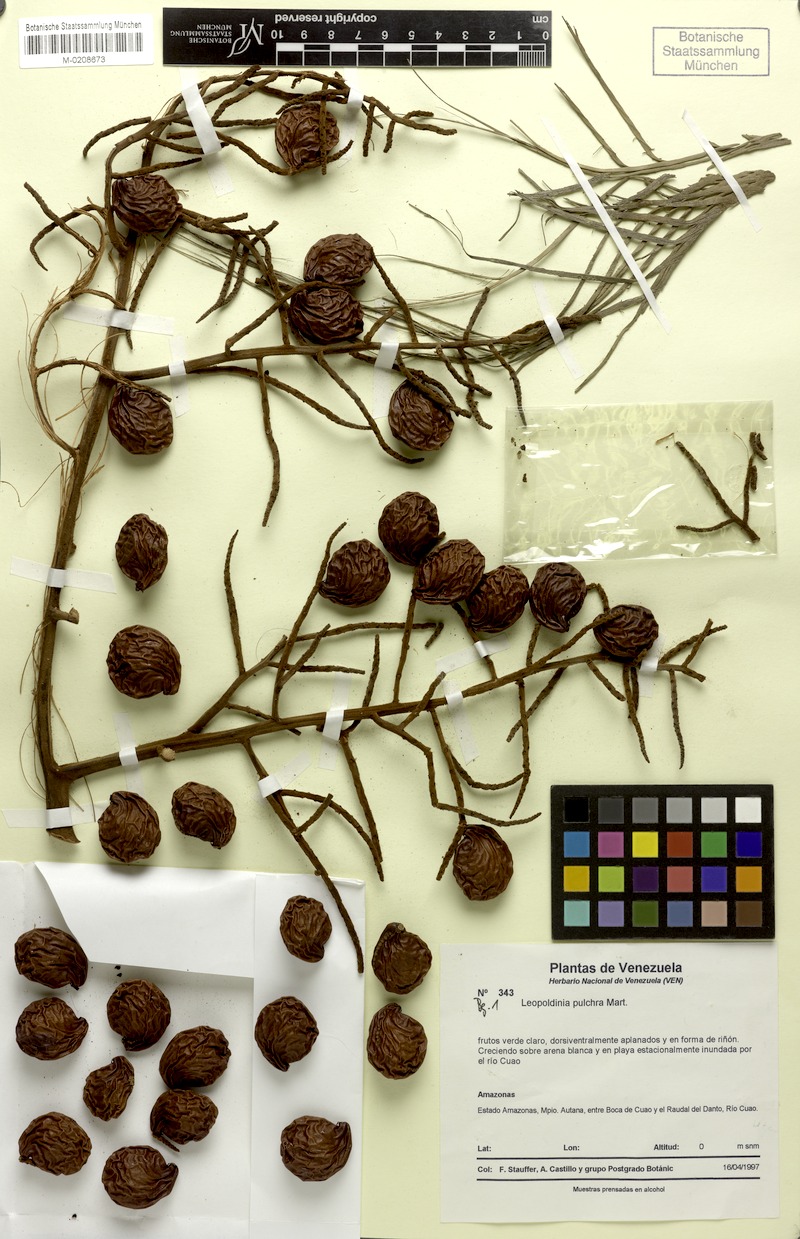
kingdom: Plantae
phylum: Tracheophyta
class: Liliopsida
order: Arecales
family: Arecaceae
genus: Leopoldinia
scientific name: Leopoldinia pulchra
